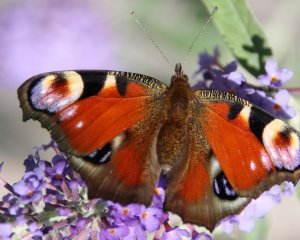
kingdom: Animalia
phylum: Arthropoda
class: Insecta
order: Lepidoptera
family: Nymphalidae
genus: Aglais
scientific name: Aglais io
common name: European Peacock
